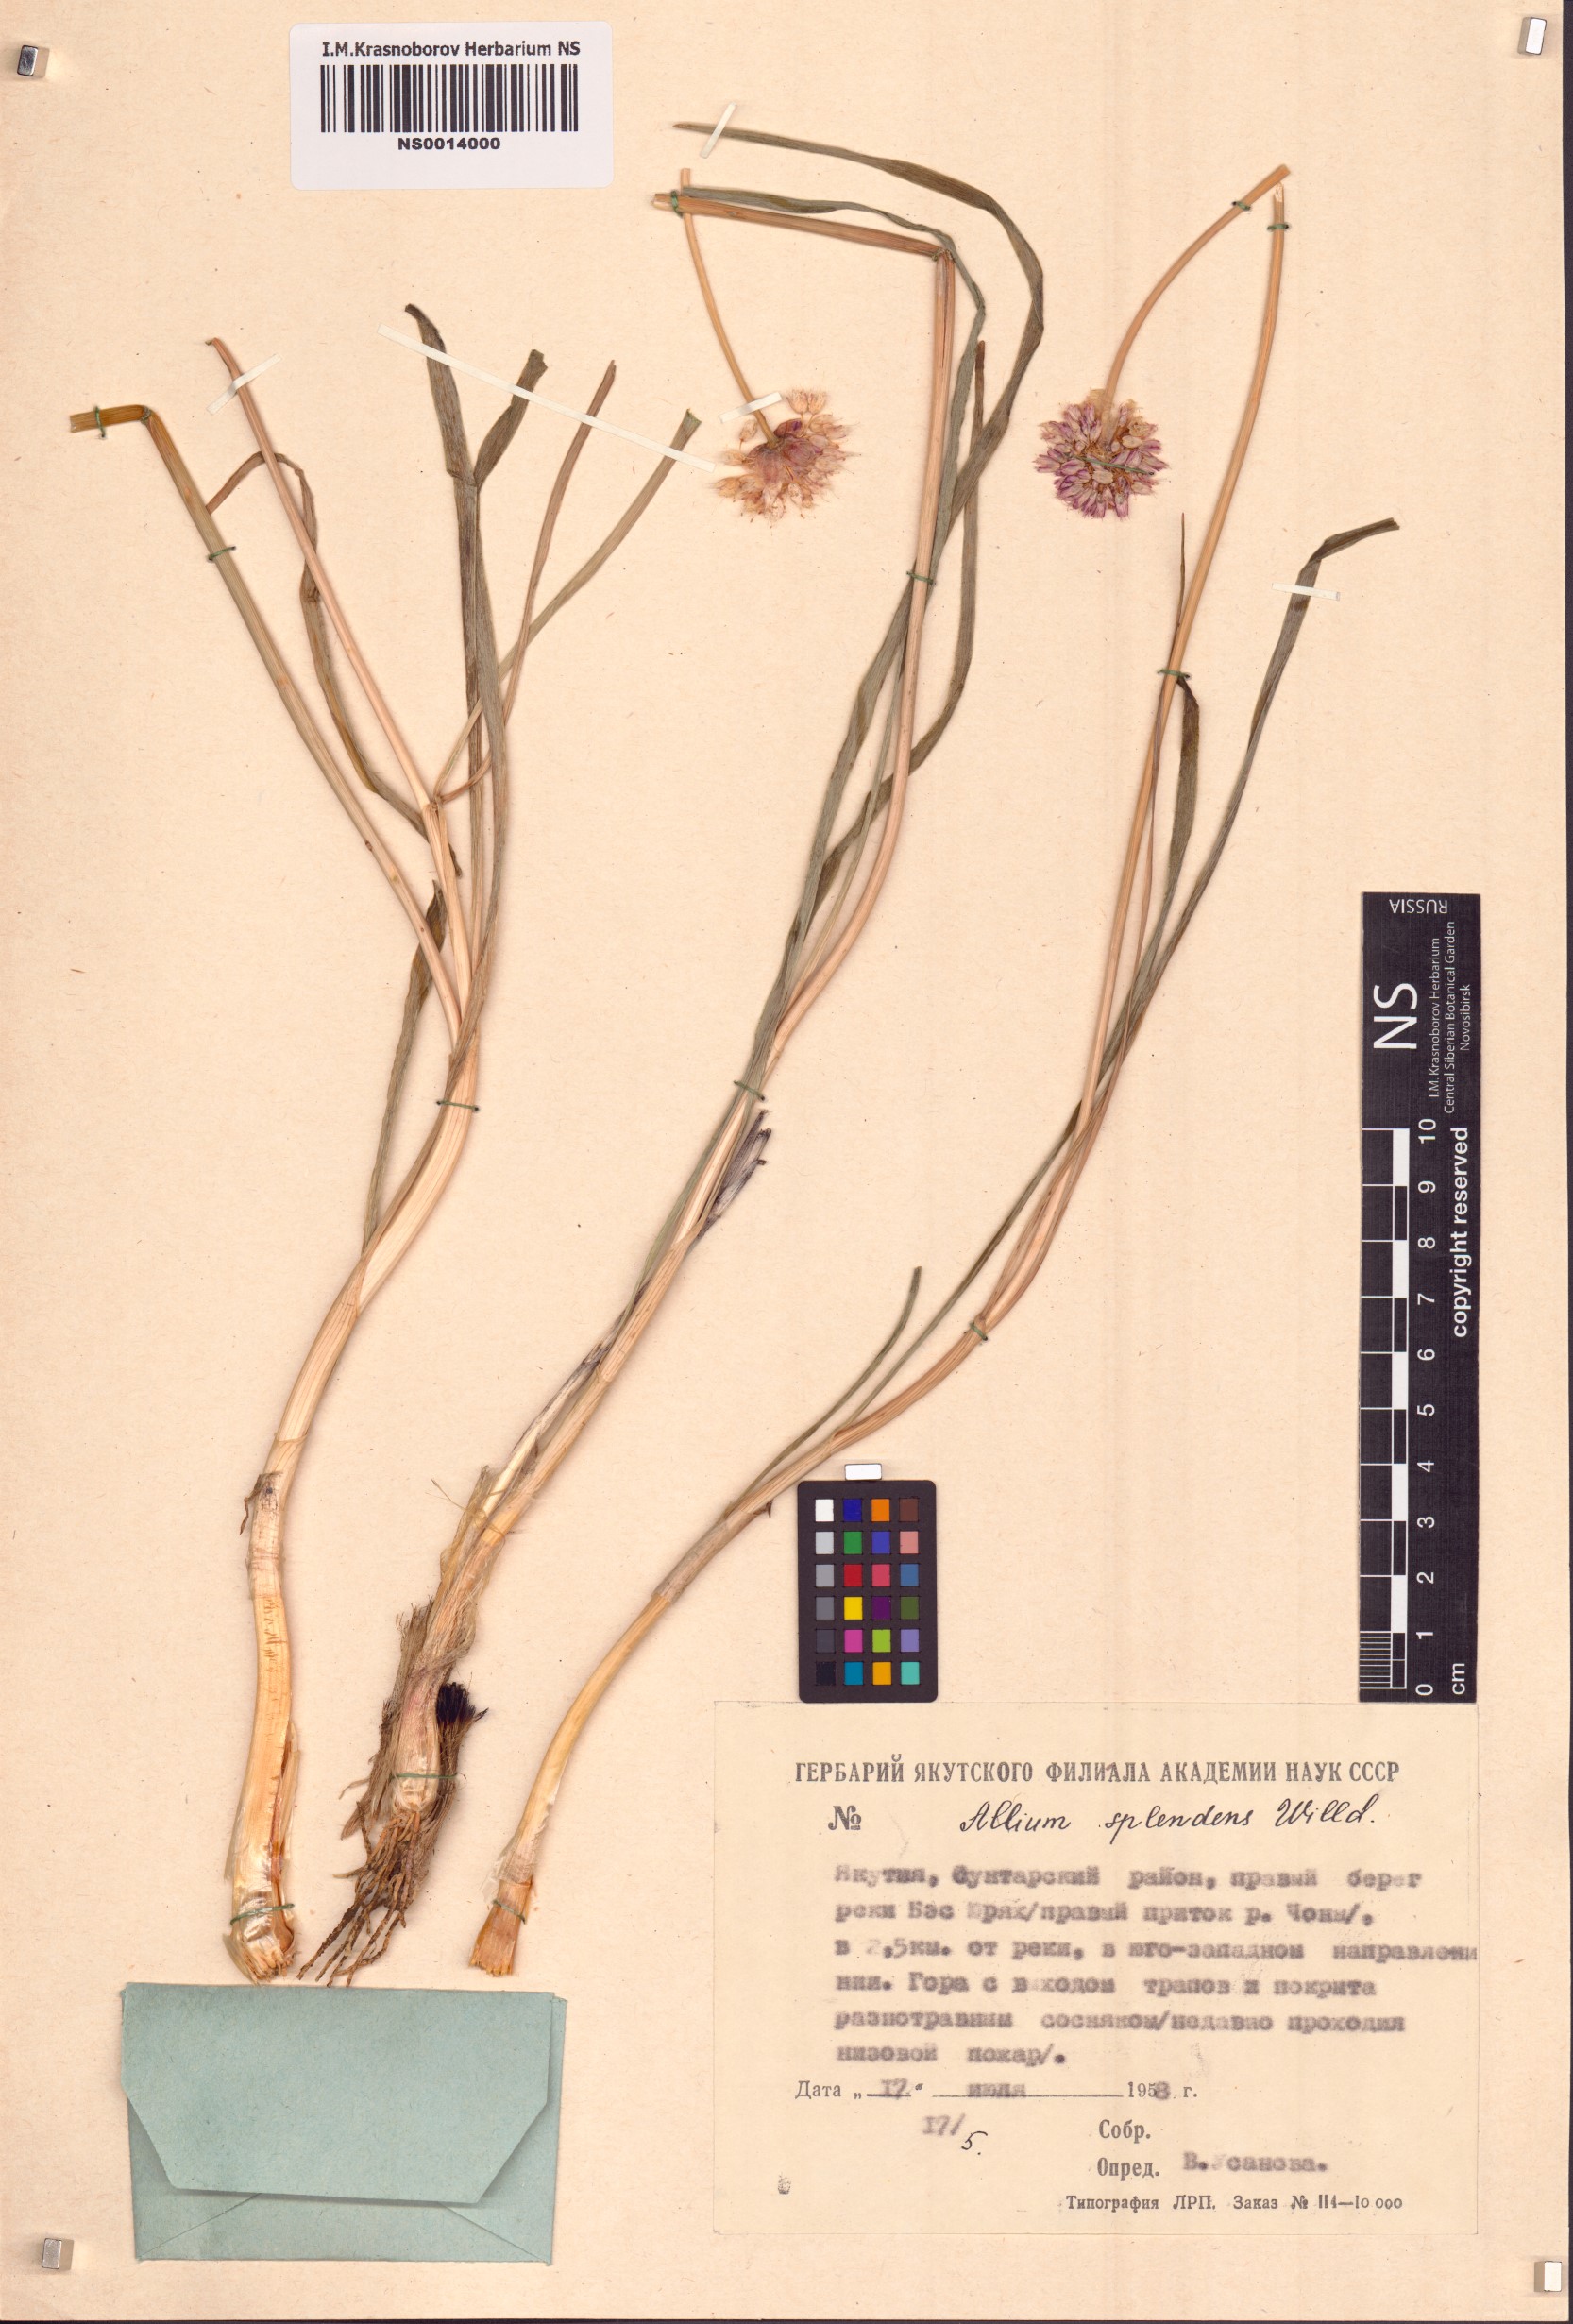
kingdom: Plantae
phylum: Tracheophyta
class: Liliopsida
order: Asparagales
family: Amaryllidaceae
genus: Allium
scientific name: Allium splendens
